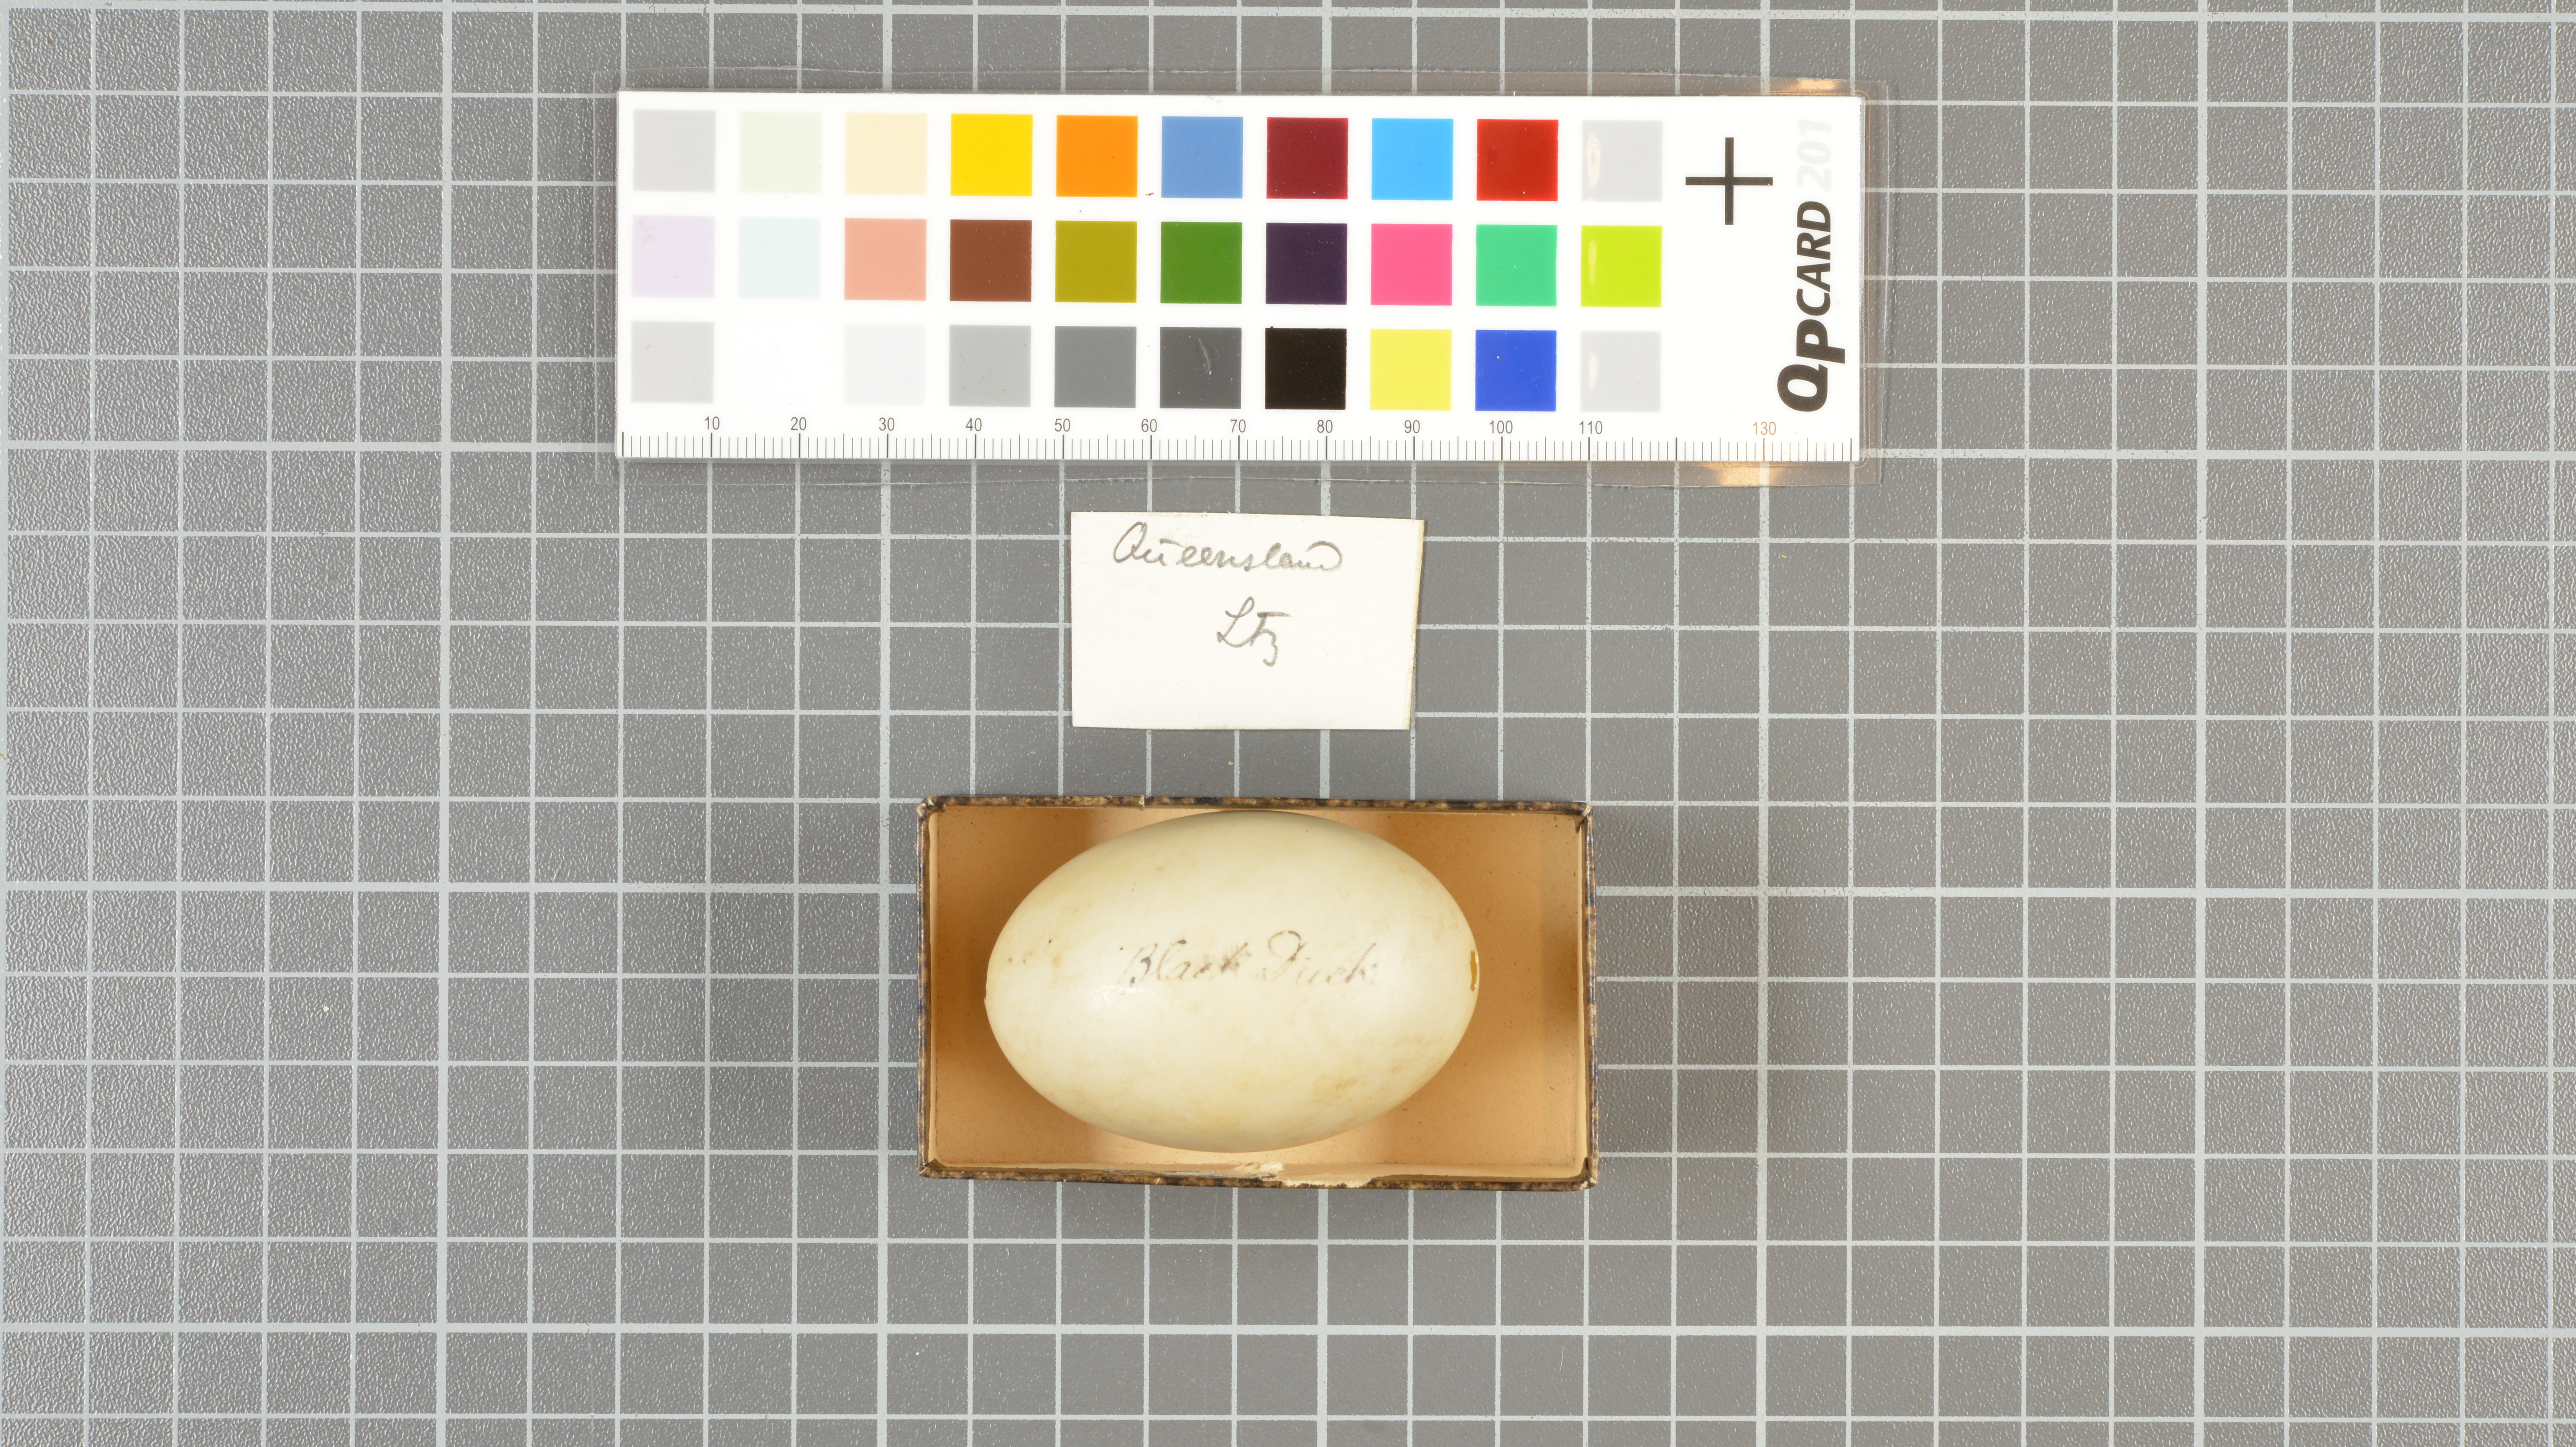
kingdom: Animalia
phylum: Chordata
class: Aves
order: Anseriformes
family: Anatidae
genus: Anas
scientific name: Anas superciliosa
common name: Pacific black duck
